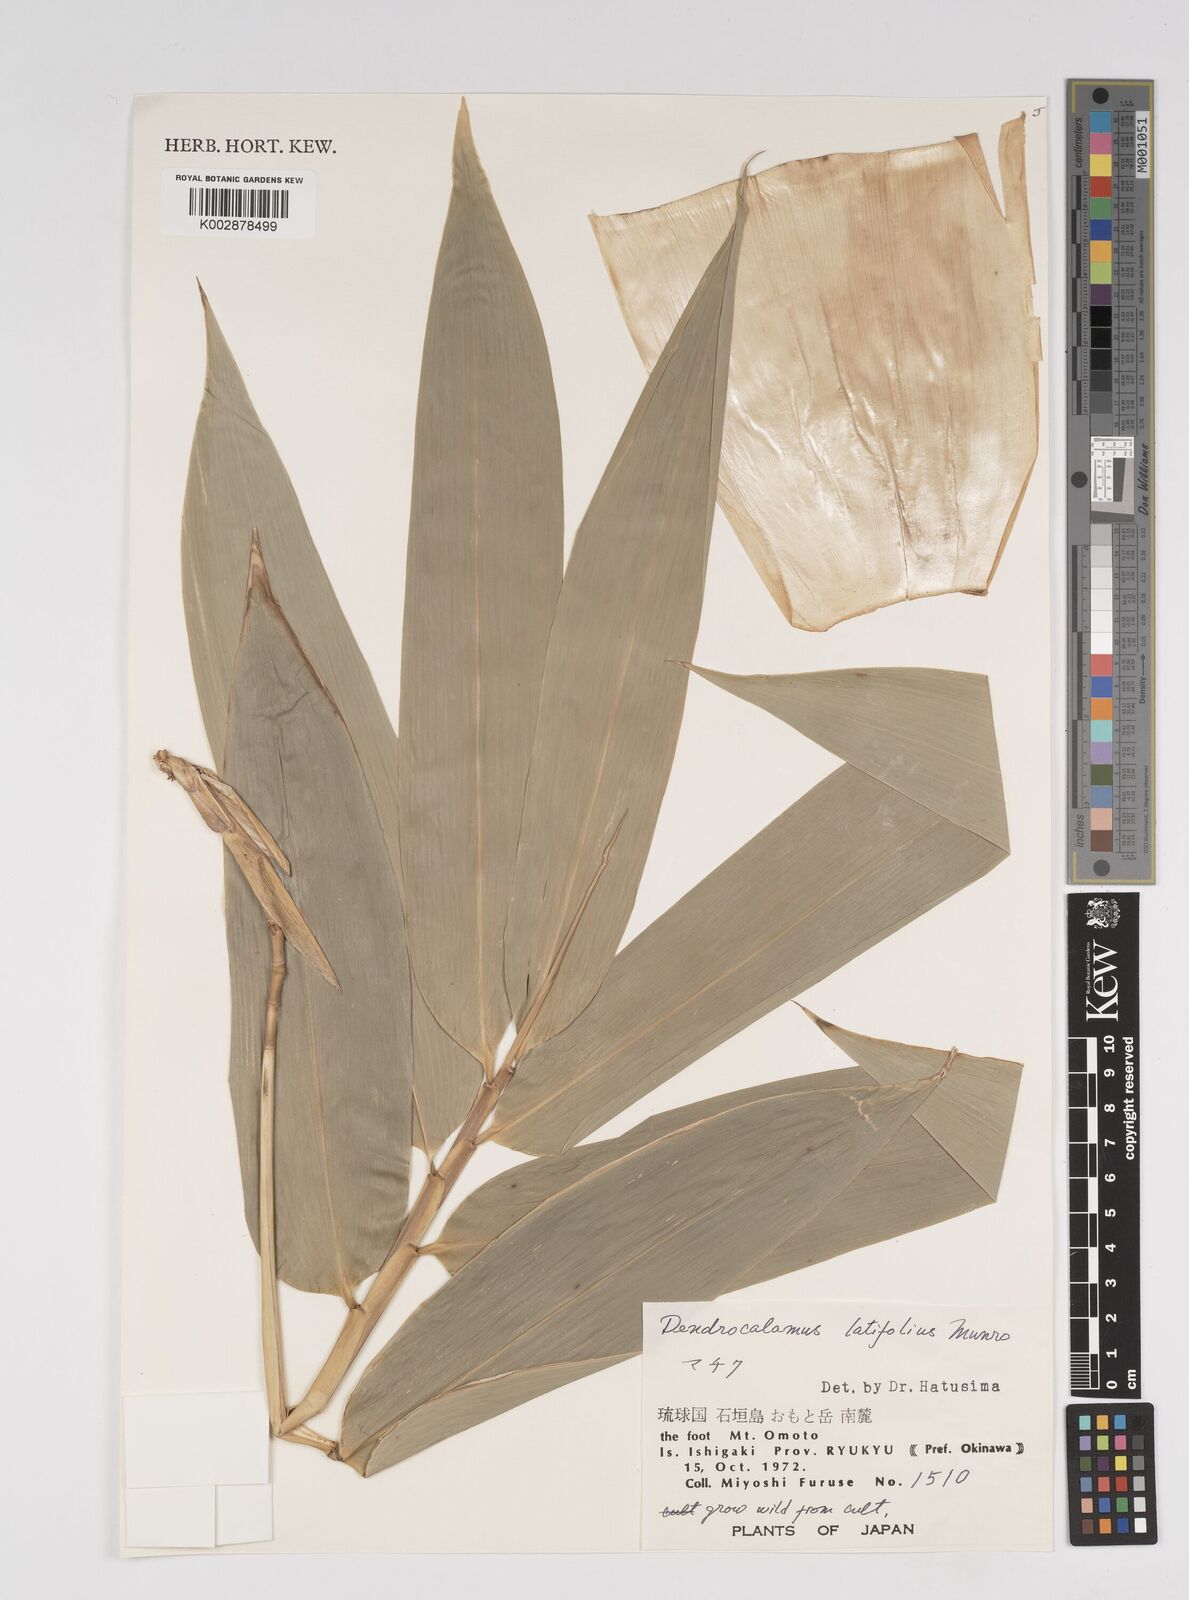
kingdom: Plantae
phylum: Tracheophyta
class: Liliopsida
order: Poales
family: Poaceae
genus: Dendrocalamus
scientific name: Dendrocalamus latiflorus
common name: Giant bamboo
